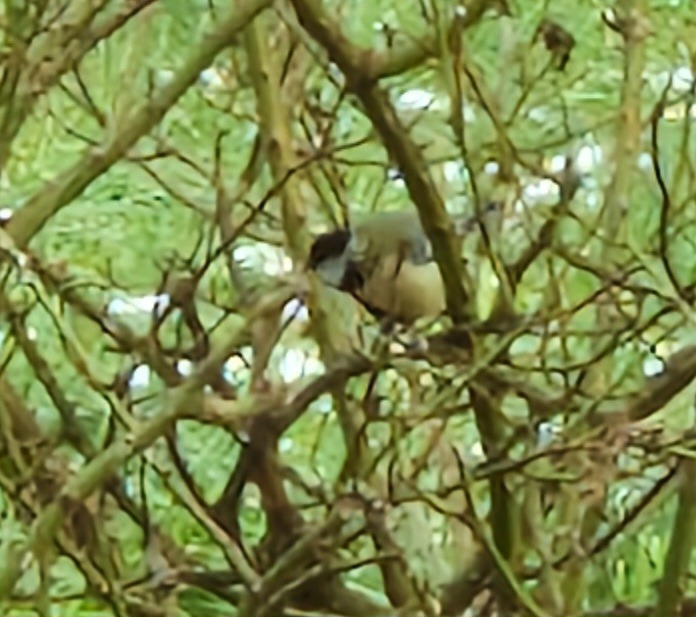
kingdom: Animalia
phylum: Chordata
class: Aves
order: Passeriformes
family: Paridae
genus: Parus
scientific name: Parus major
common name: Musvit
